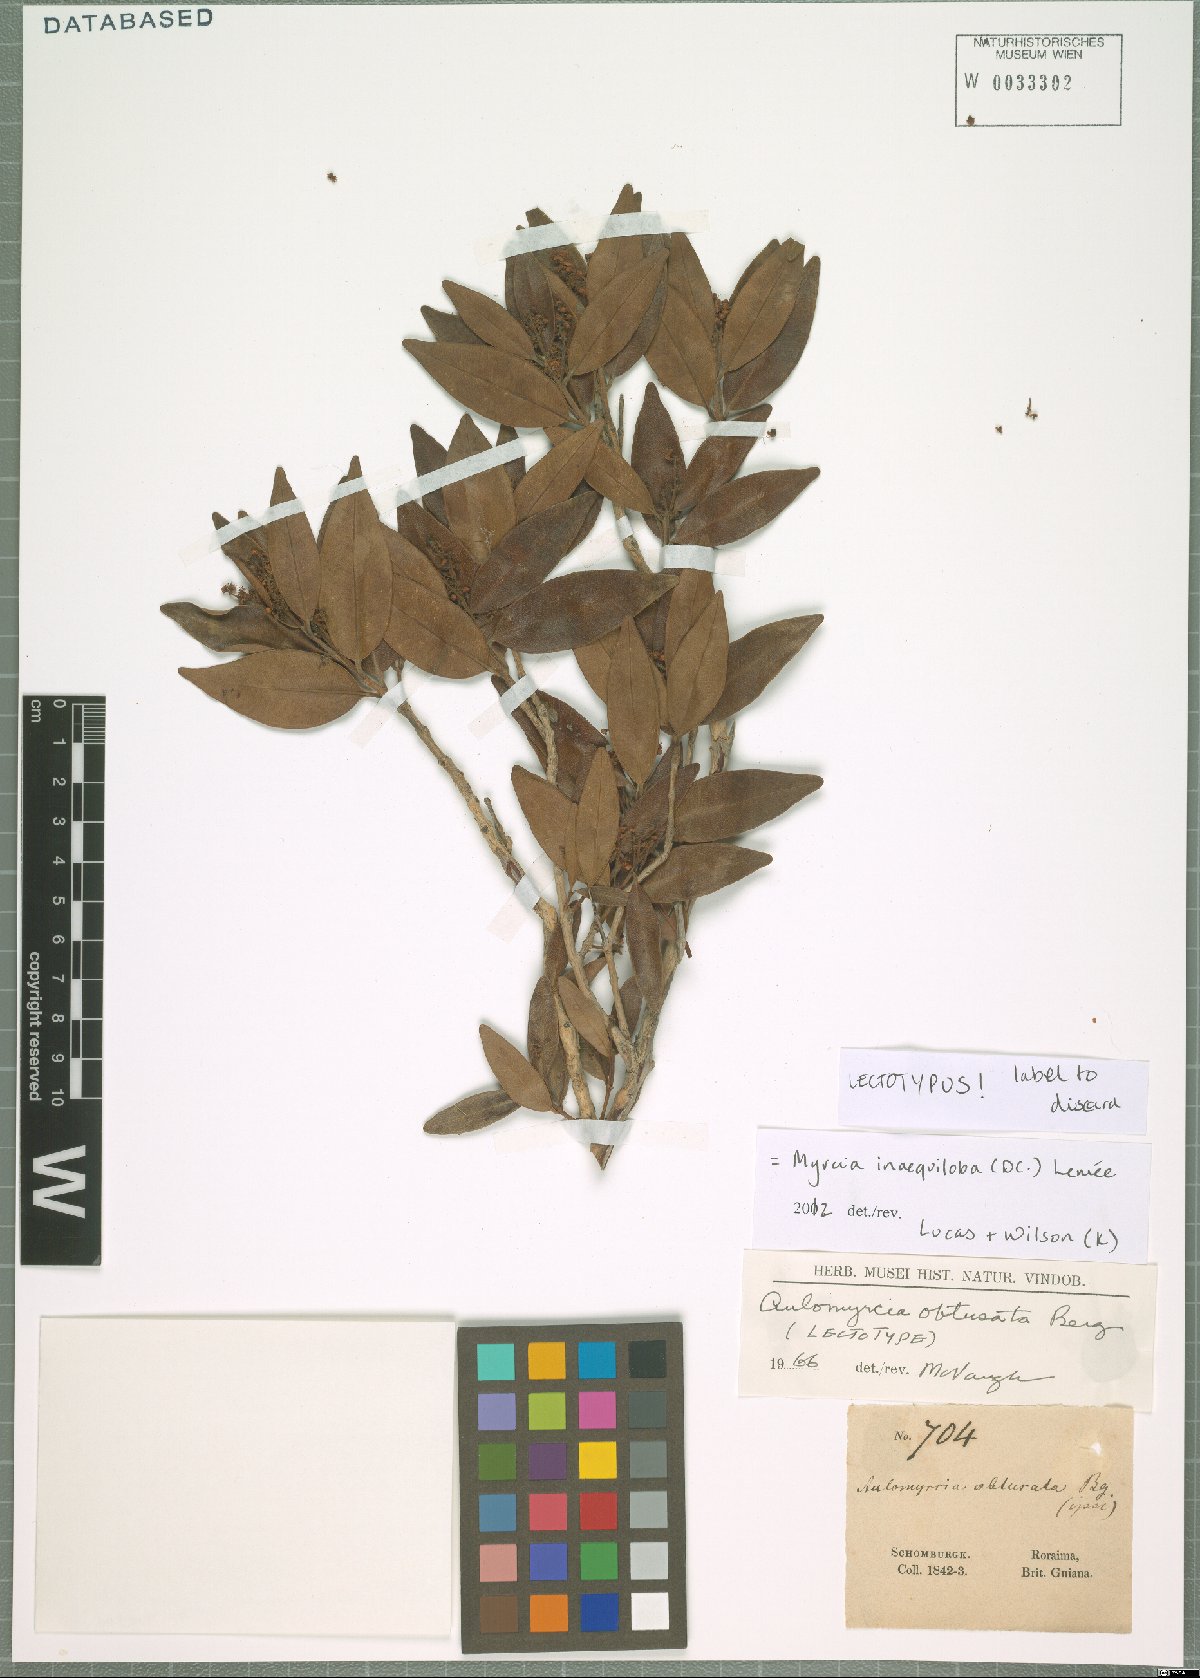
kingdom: Plantae
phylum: Tracheophyta
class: Magnoliopsida
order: Myrtales
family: Myrtaceae
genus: Myrcia
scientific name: Myrcia inaequiloba
